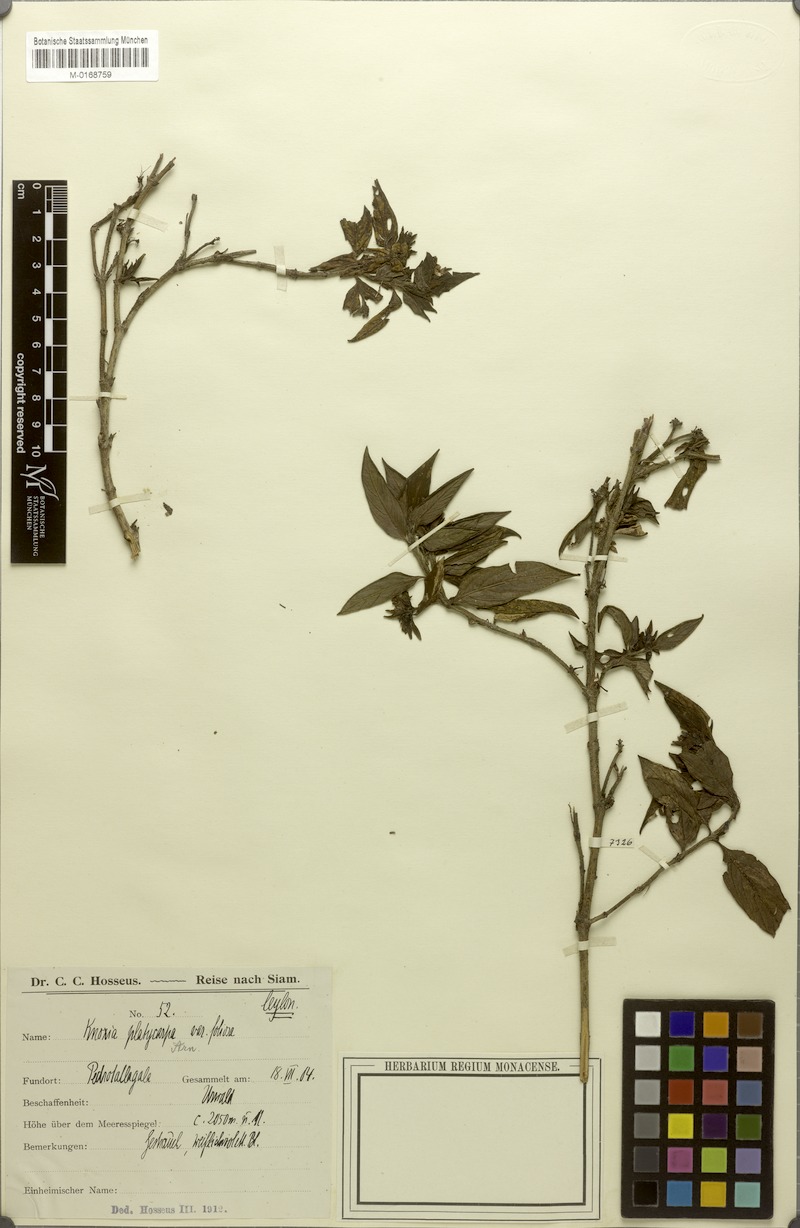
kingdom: Plantae
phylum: Tracheophyta
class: Magnoliopsida
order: Gentianales
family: Rubiaceae
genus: Knoxia
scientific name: Knoxia platycarpa
